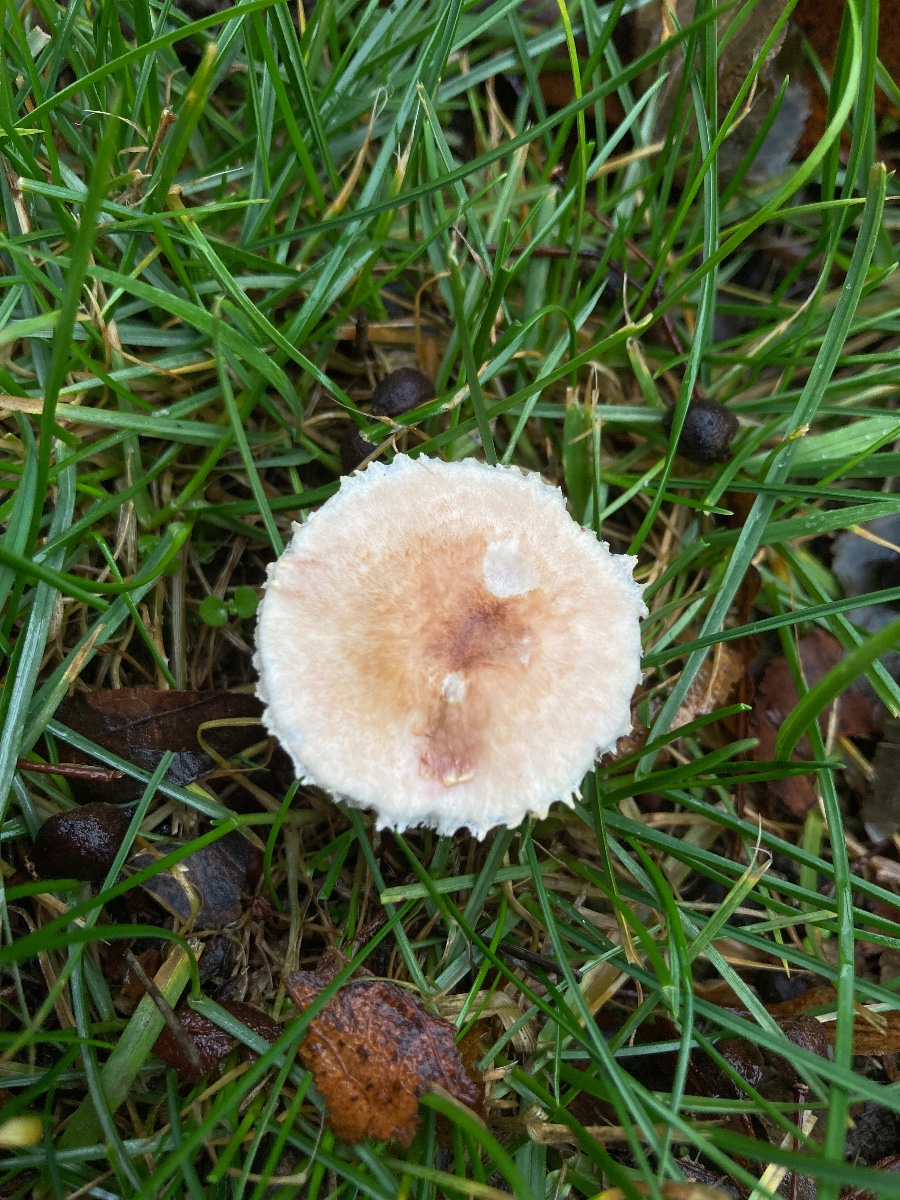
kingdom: Fungi
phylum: Basidiomycota
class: Agaricomycetes
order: Agaricales
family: Agaricaceae
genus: Agaricus
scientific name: Agaricus
